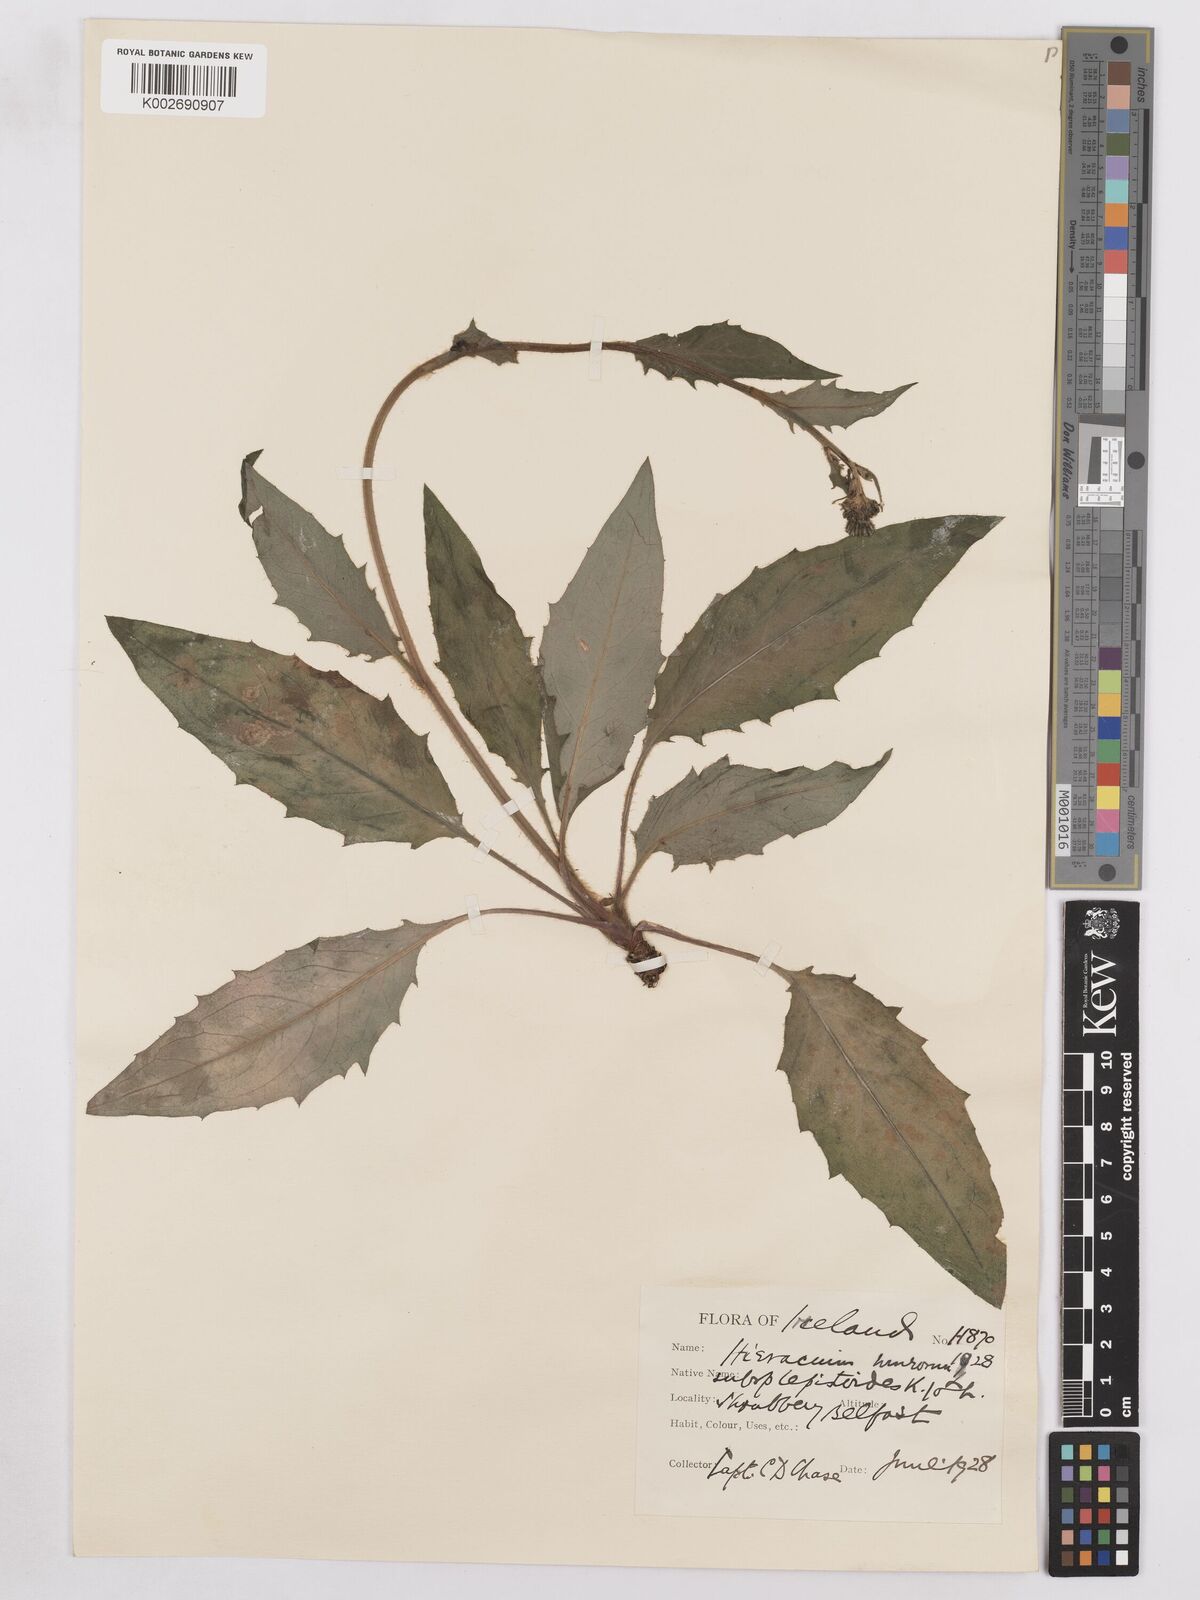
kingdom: Plantae
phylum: Tracheophyta
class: Magnoliopsida
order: Asterales
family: Asteraceae
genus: Hieracium
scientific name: Hieracium murorum
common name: Wall hawkweed
